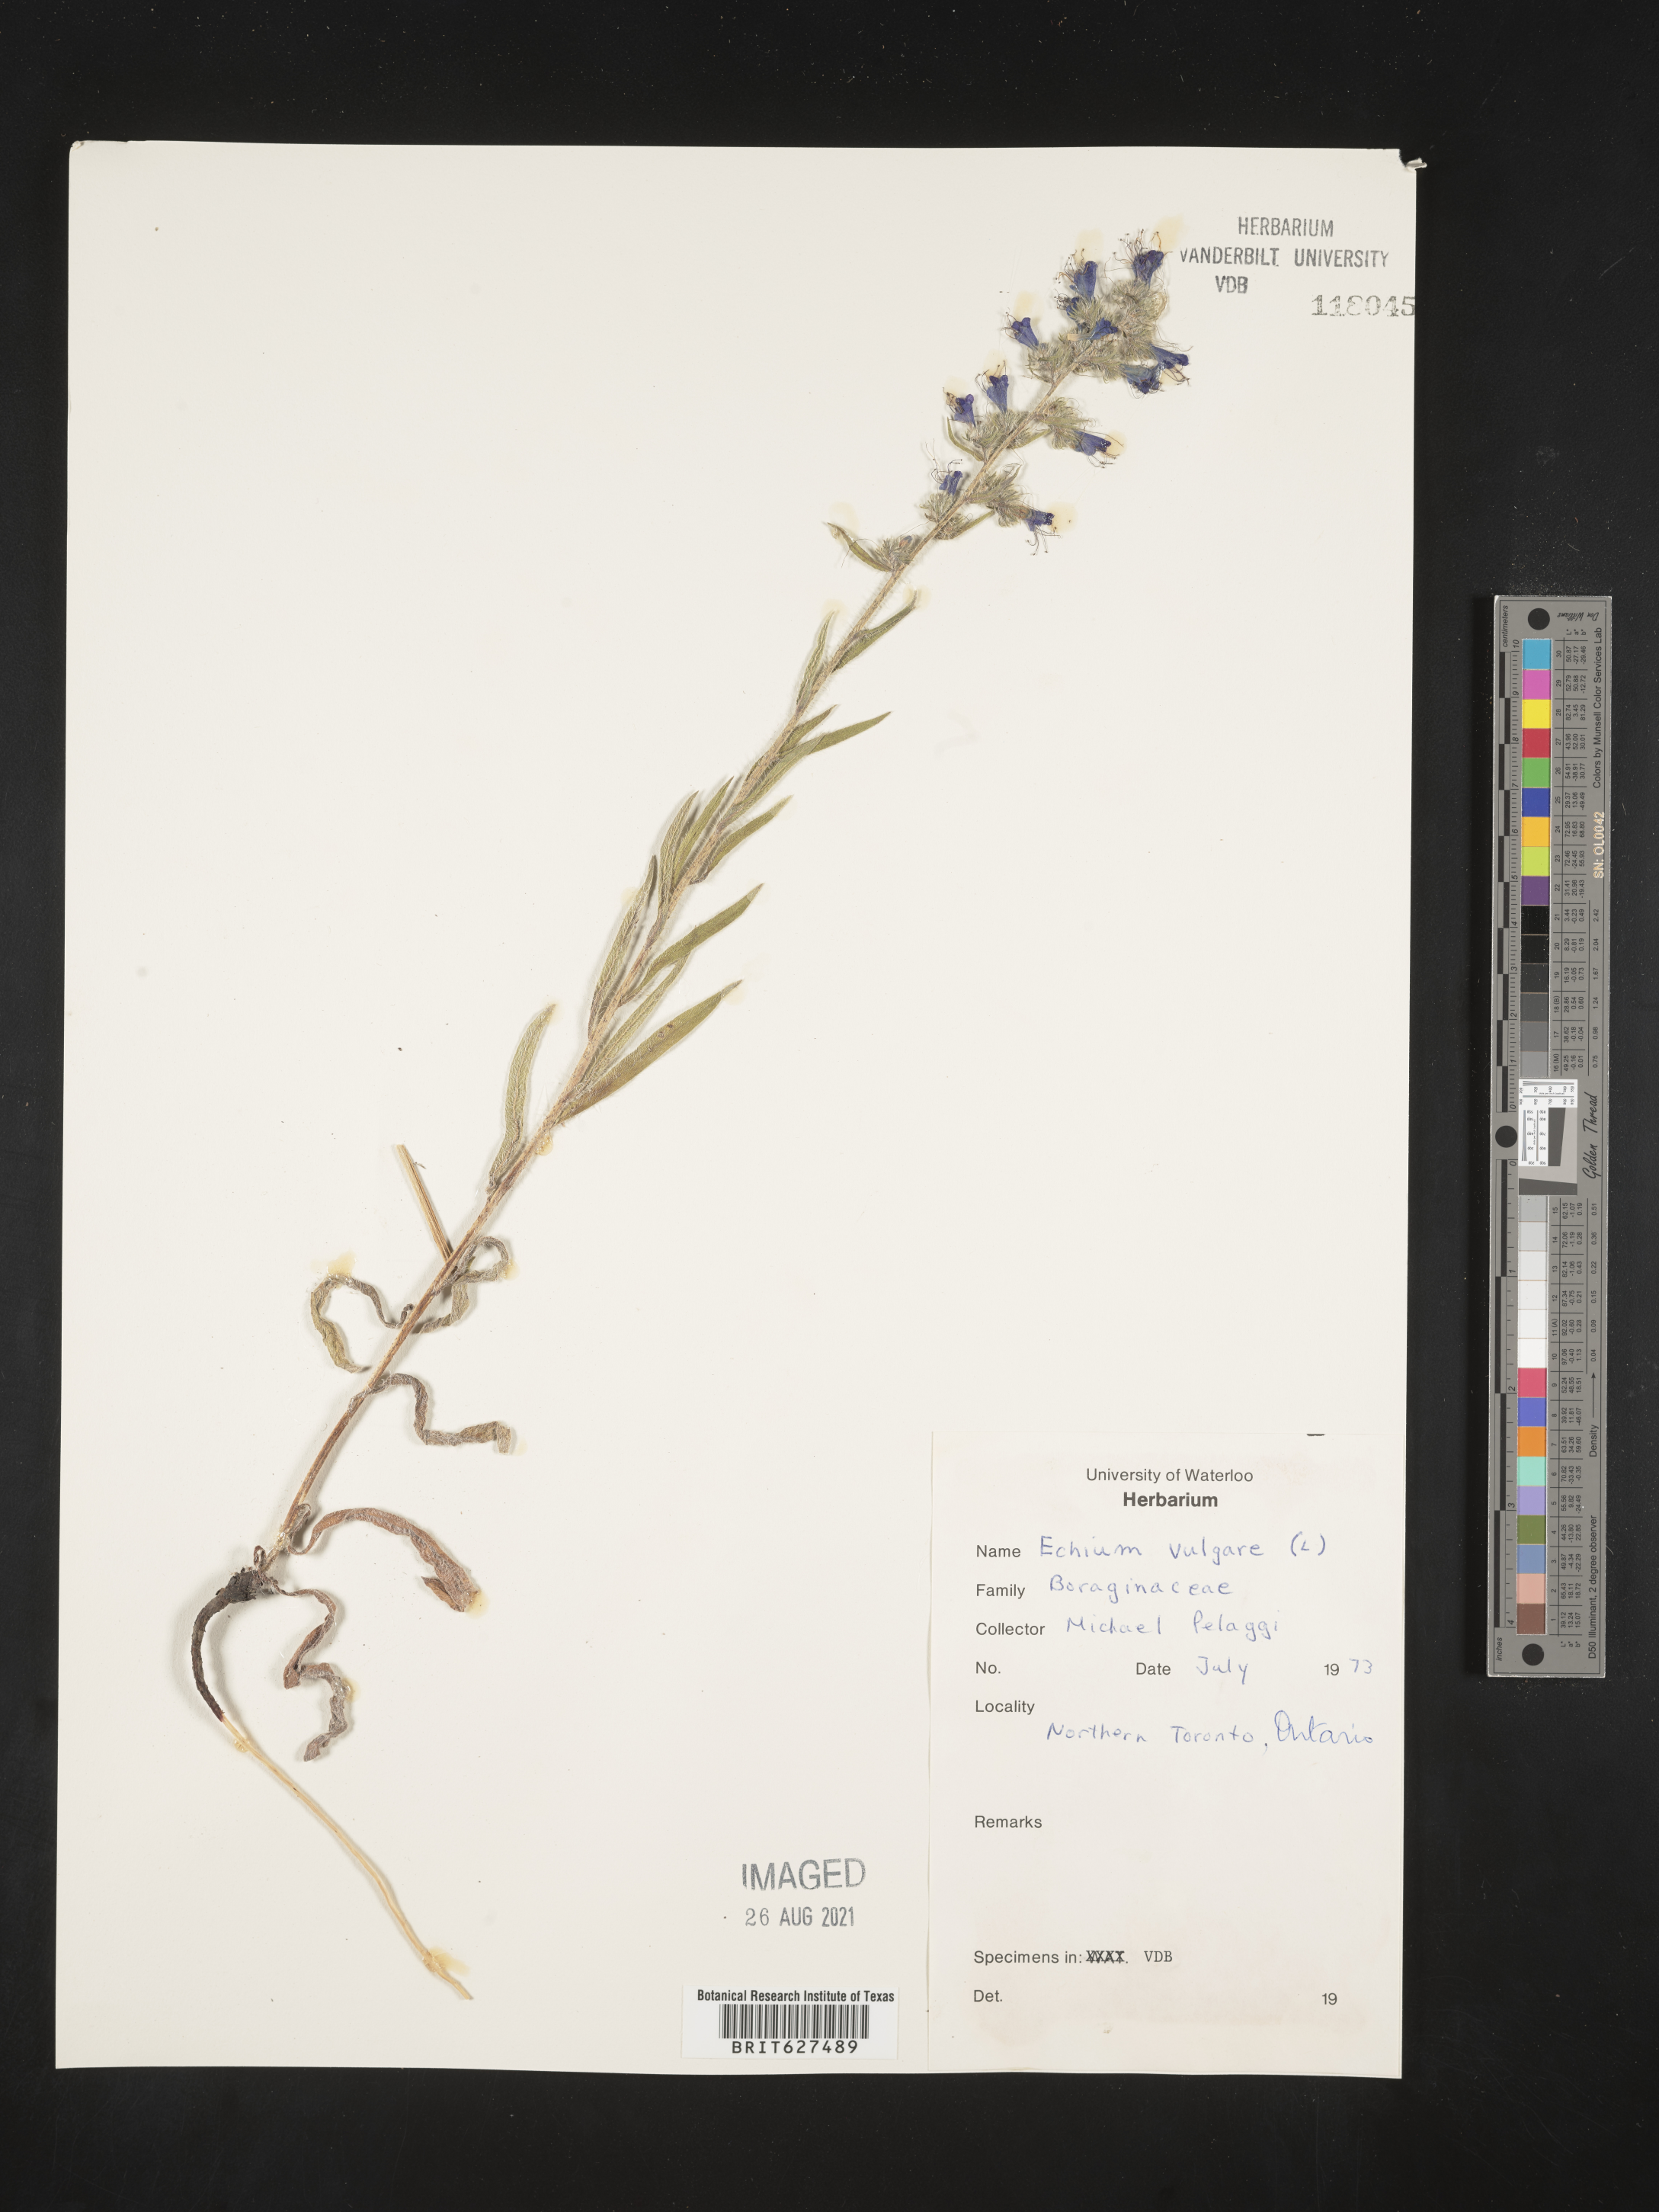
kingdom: Plantae
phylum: Tracheophyta
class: Magnoliopsida
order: Boraginales
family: Boraginaceae
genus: Echium
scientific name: Echium vulgare
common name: Common viper's bugloss
